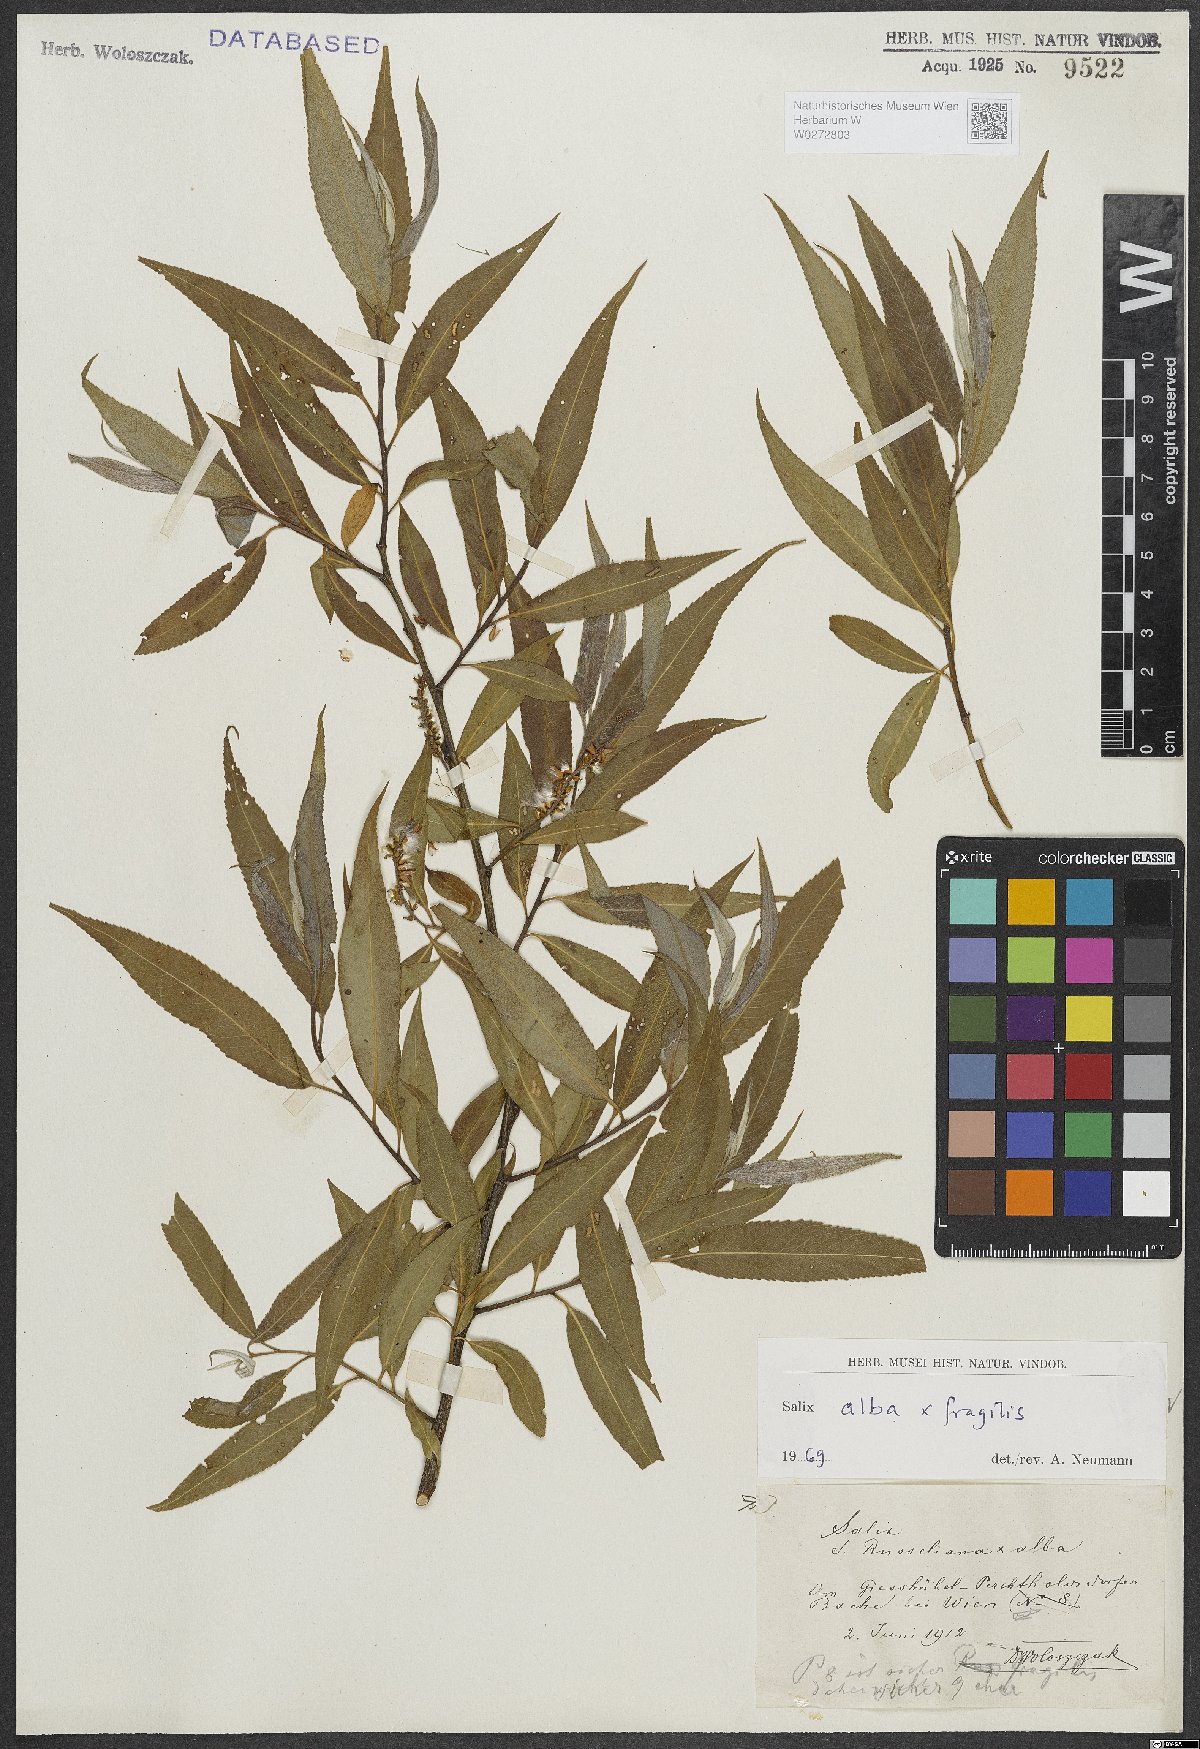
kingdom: Plantae
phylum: Tracheophyta
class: Magnoliopsida
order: Malpighiales
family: Salicaceae
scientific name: Salicaceae
